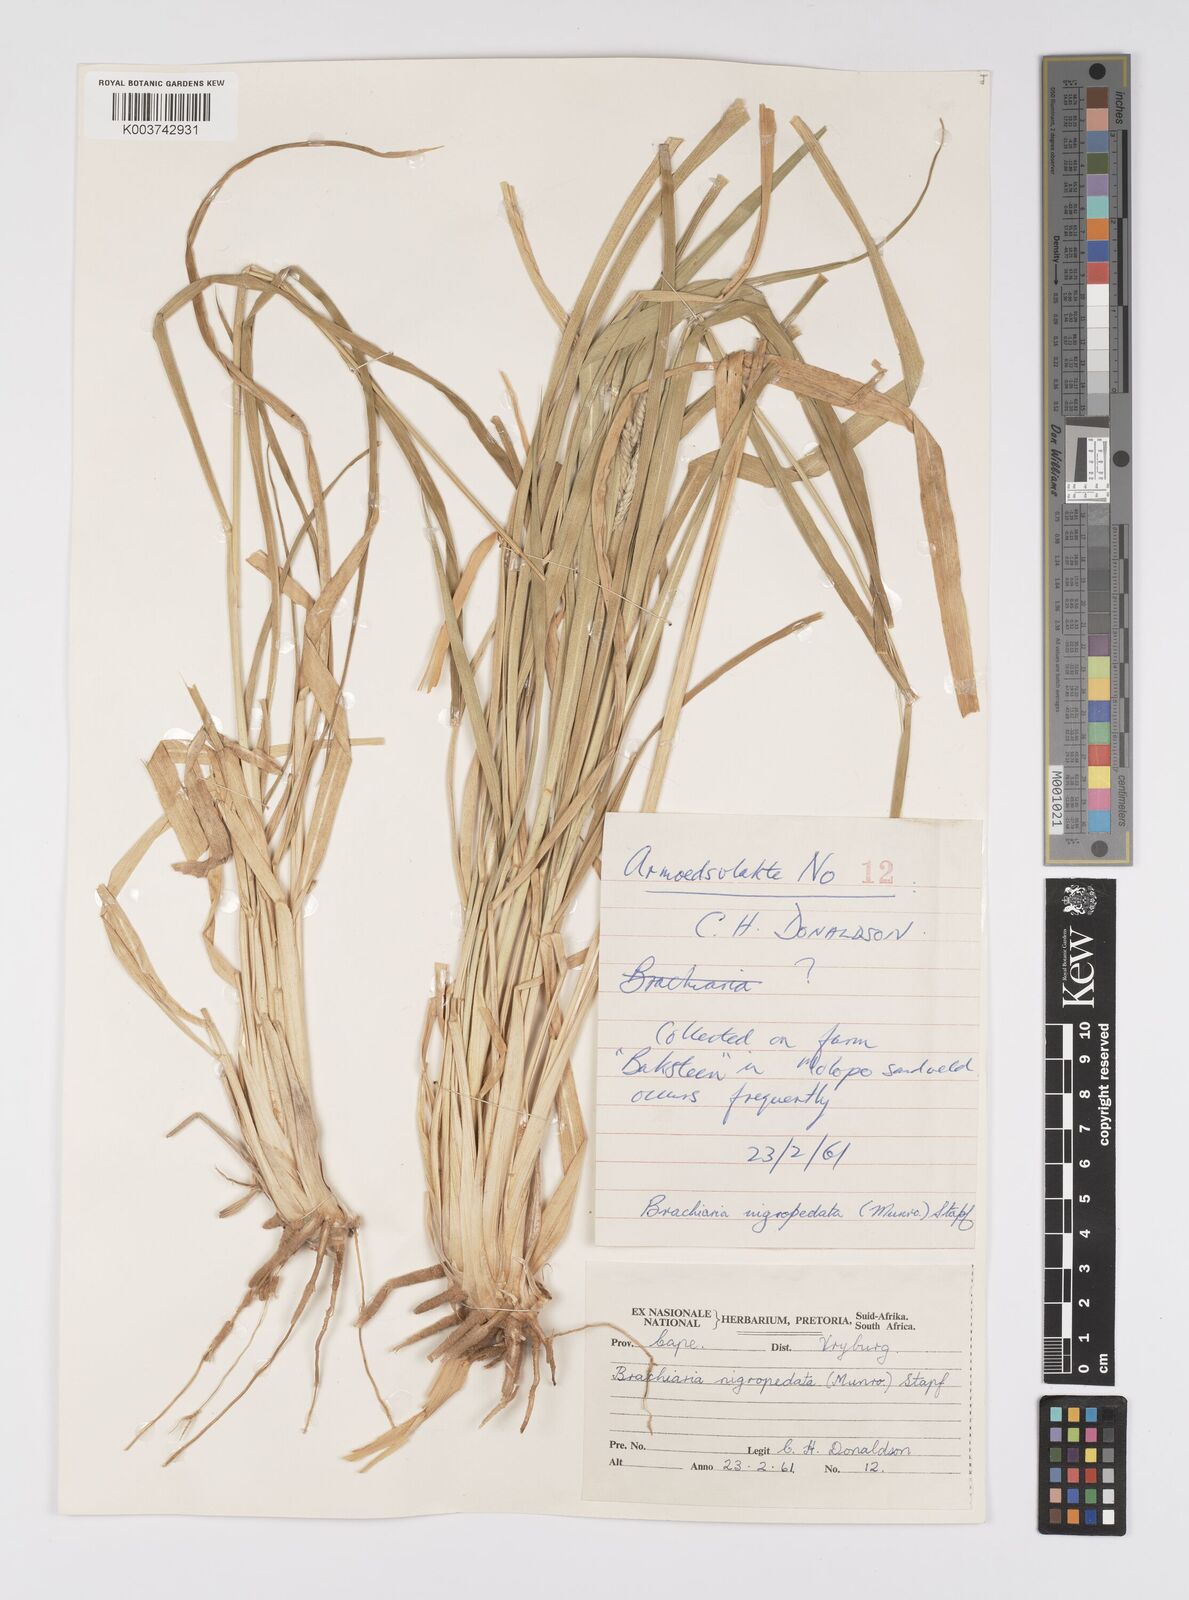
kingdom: Plantae
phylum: Tracheophyta
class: Liliopsida
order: Poales
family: Poaceae
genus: Urochloa
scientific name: Urochloa nigropedata
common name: Spotted signal grass
